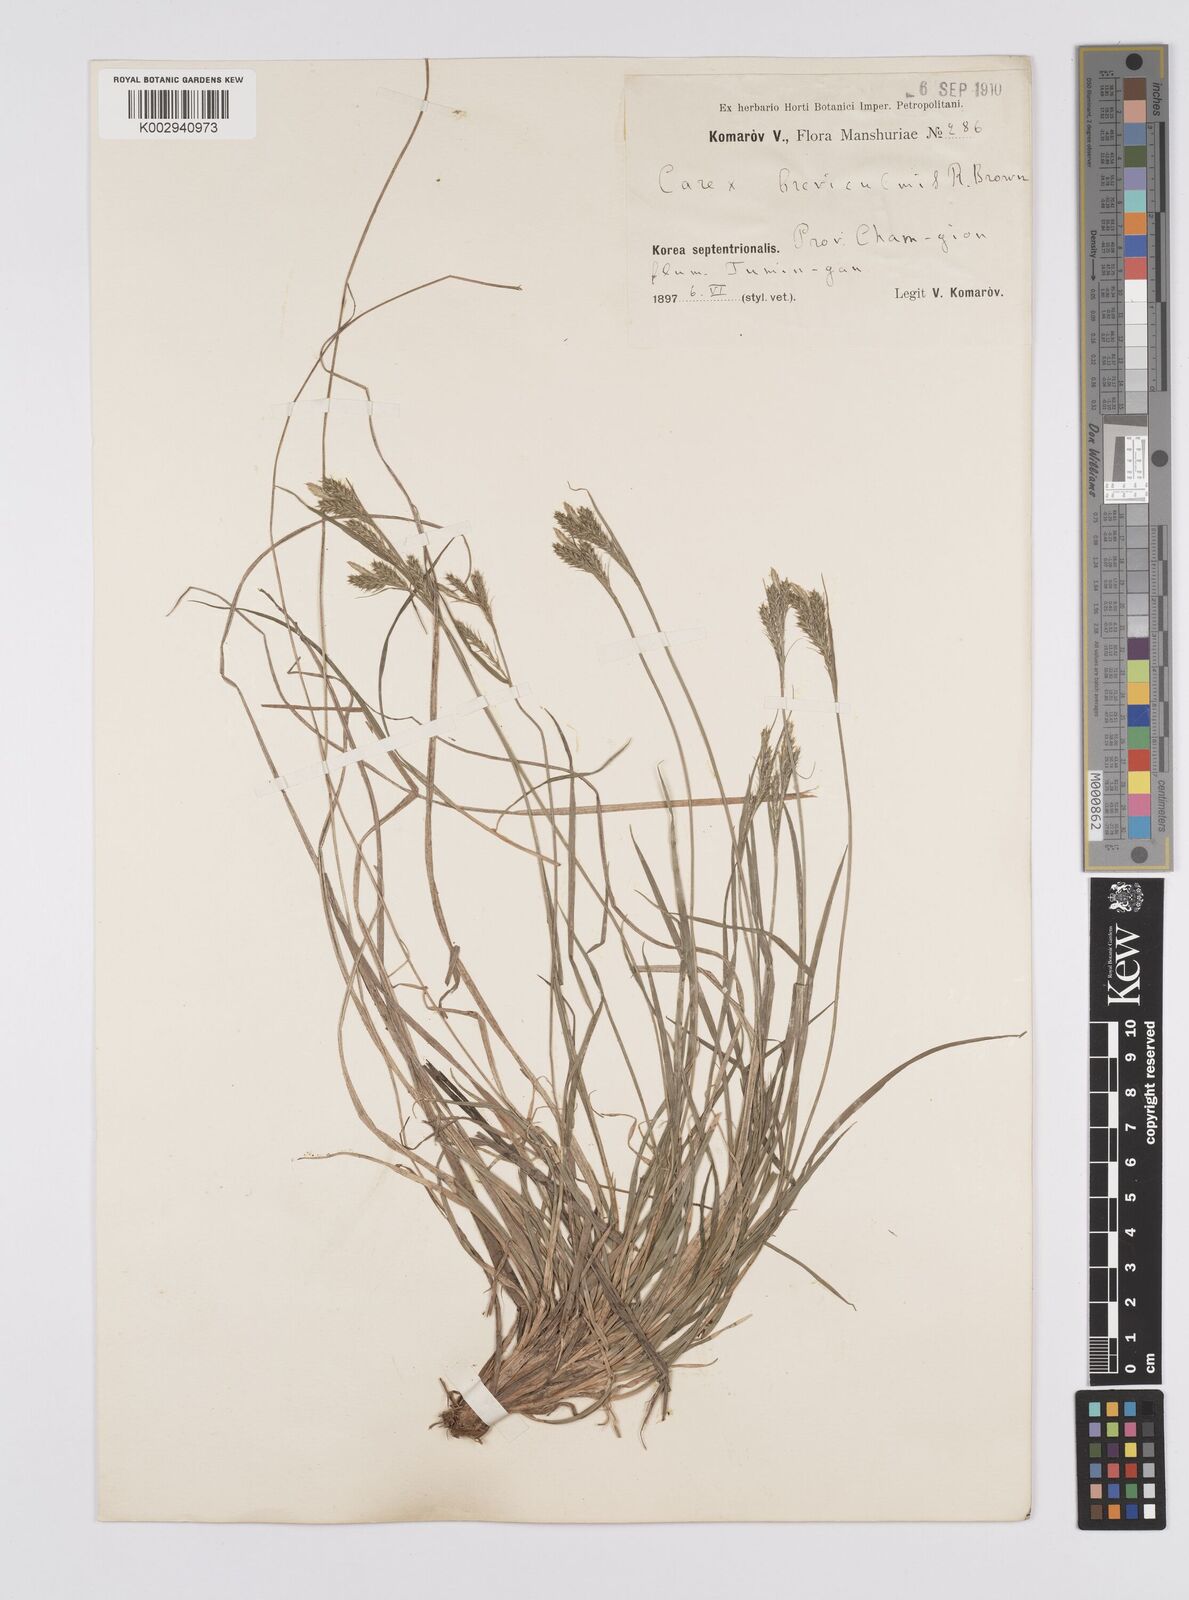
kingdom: Plantae
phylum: Tracheophyta
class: Liliopsida
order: Poales
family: Cyperaceae
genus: Carex
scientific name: Carex breviculmis
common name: Asian shortstem sedge
